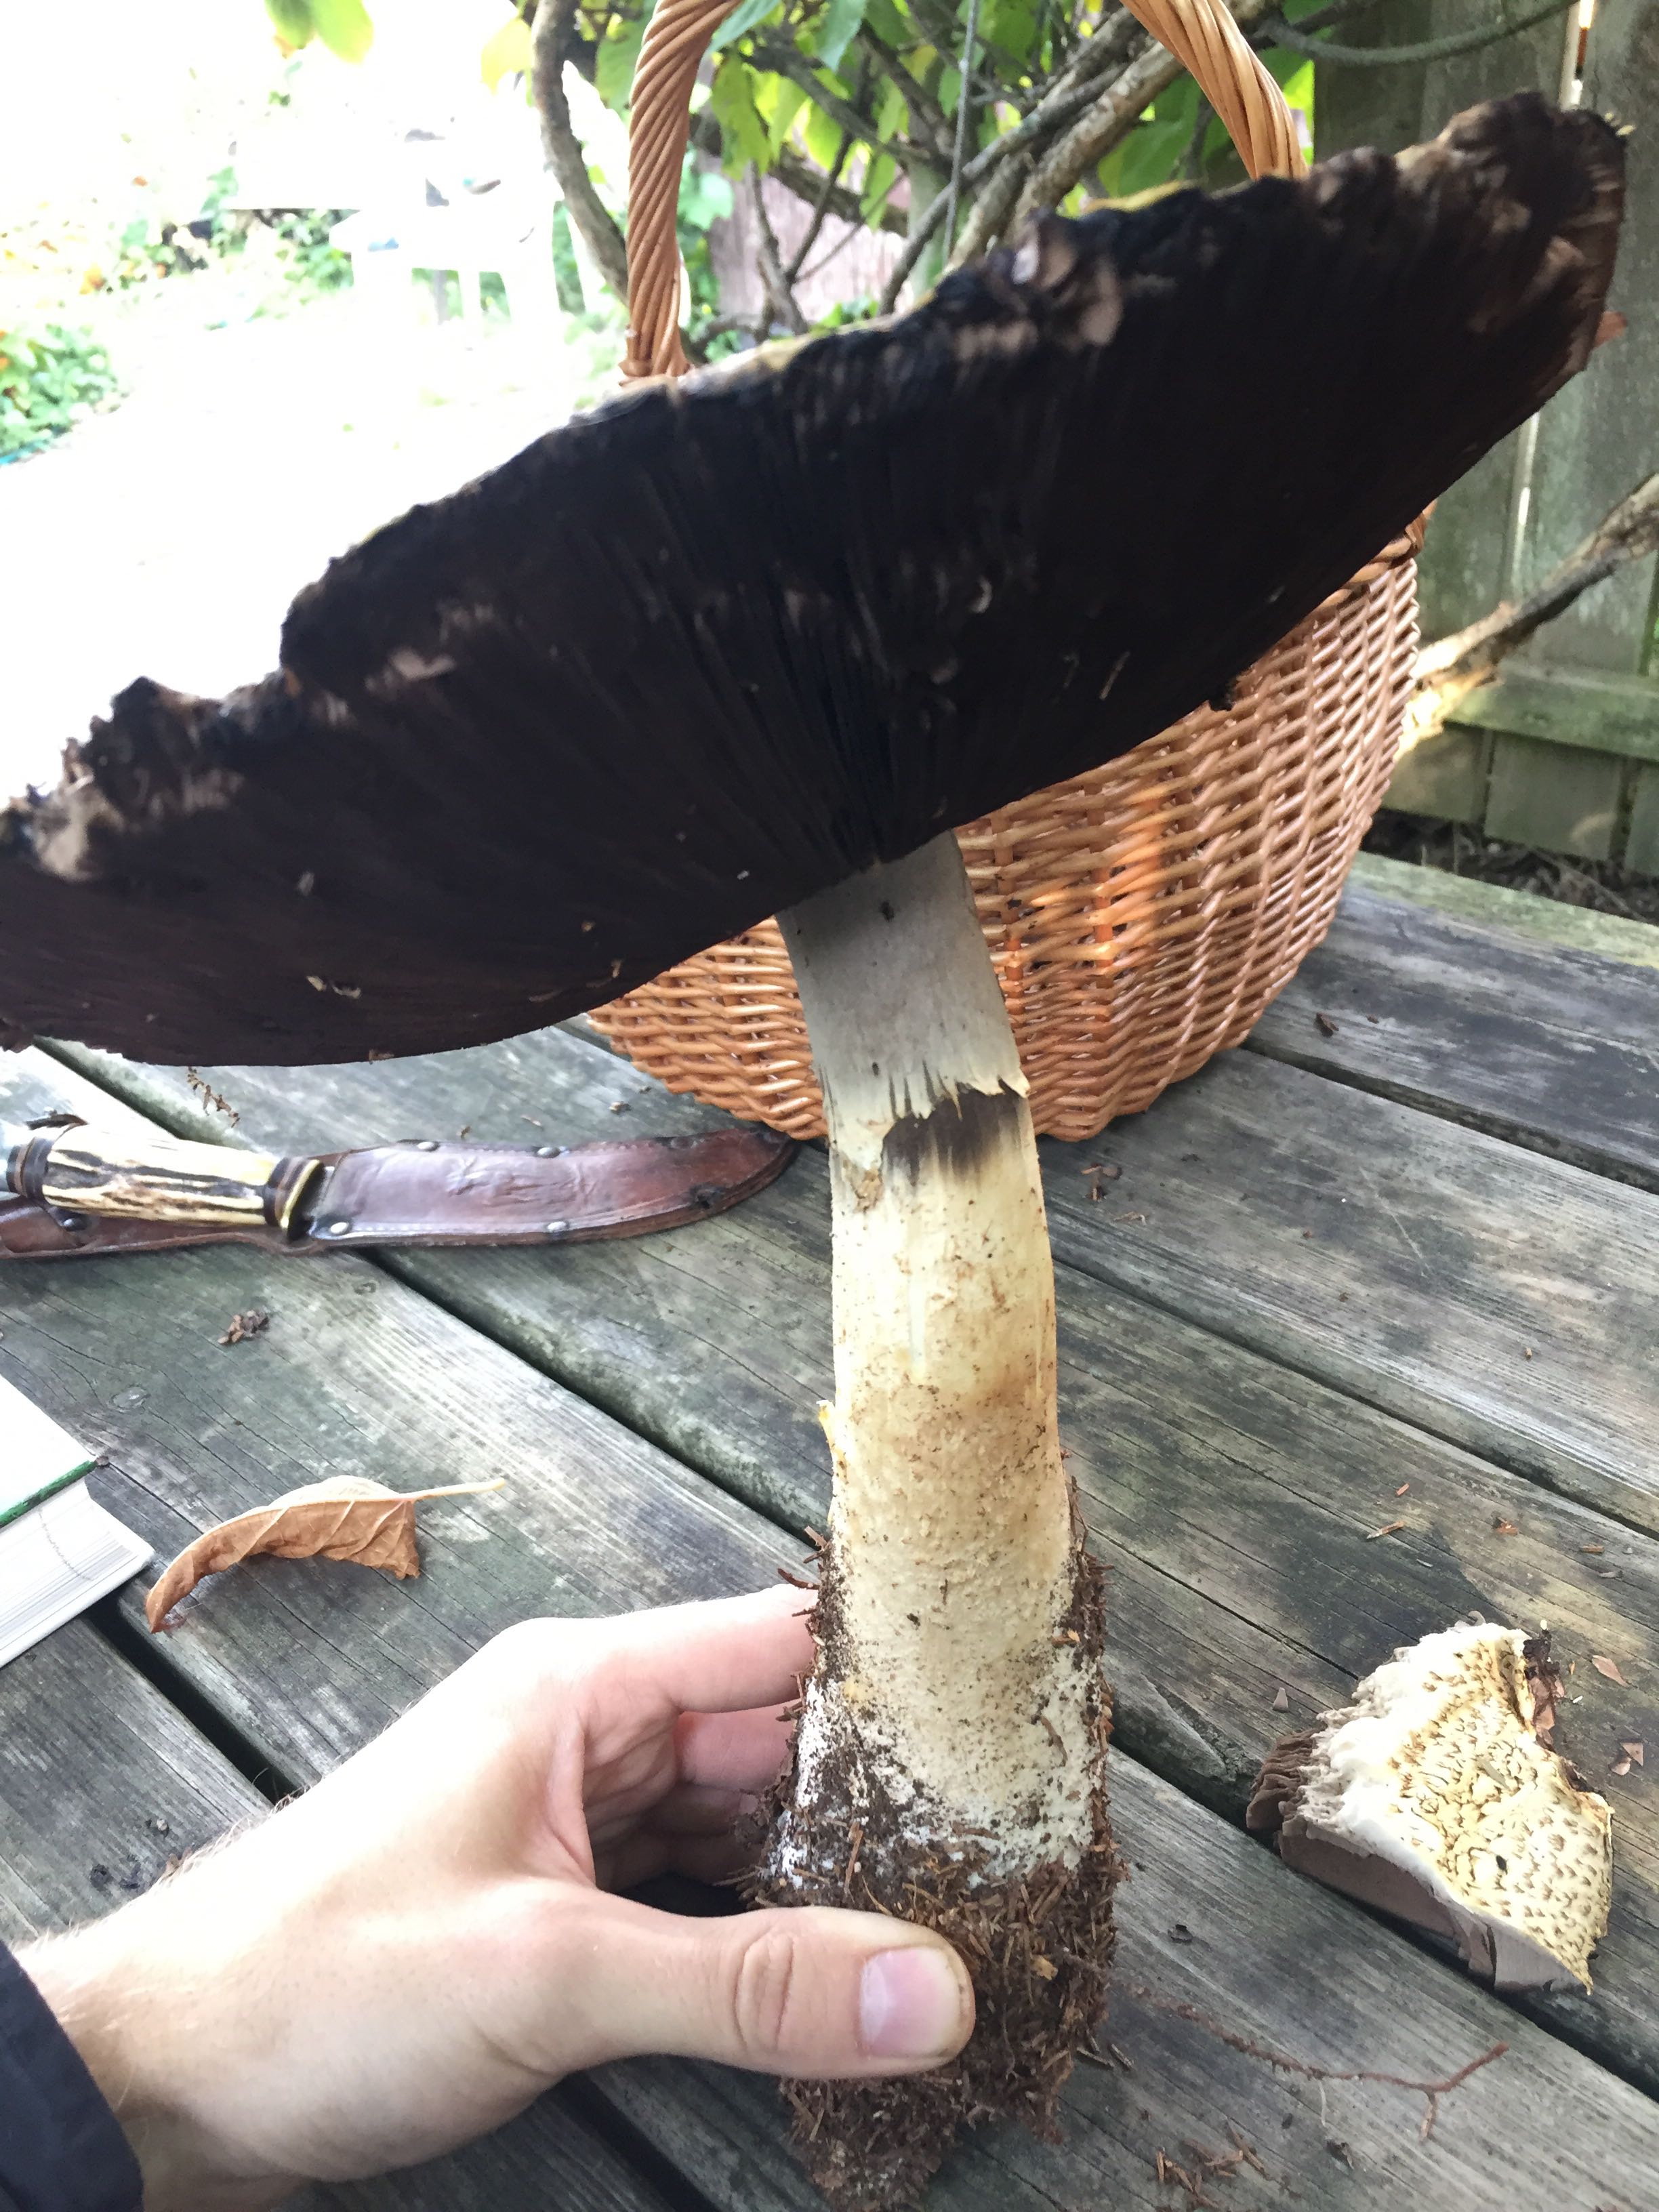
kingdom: Fungi
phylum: Basidiomycota
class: Agaricomycetes
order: Agaricales
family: Agaricaceae
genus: Agaricus
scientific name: Agaricus augustus
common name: prægtig champignon
